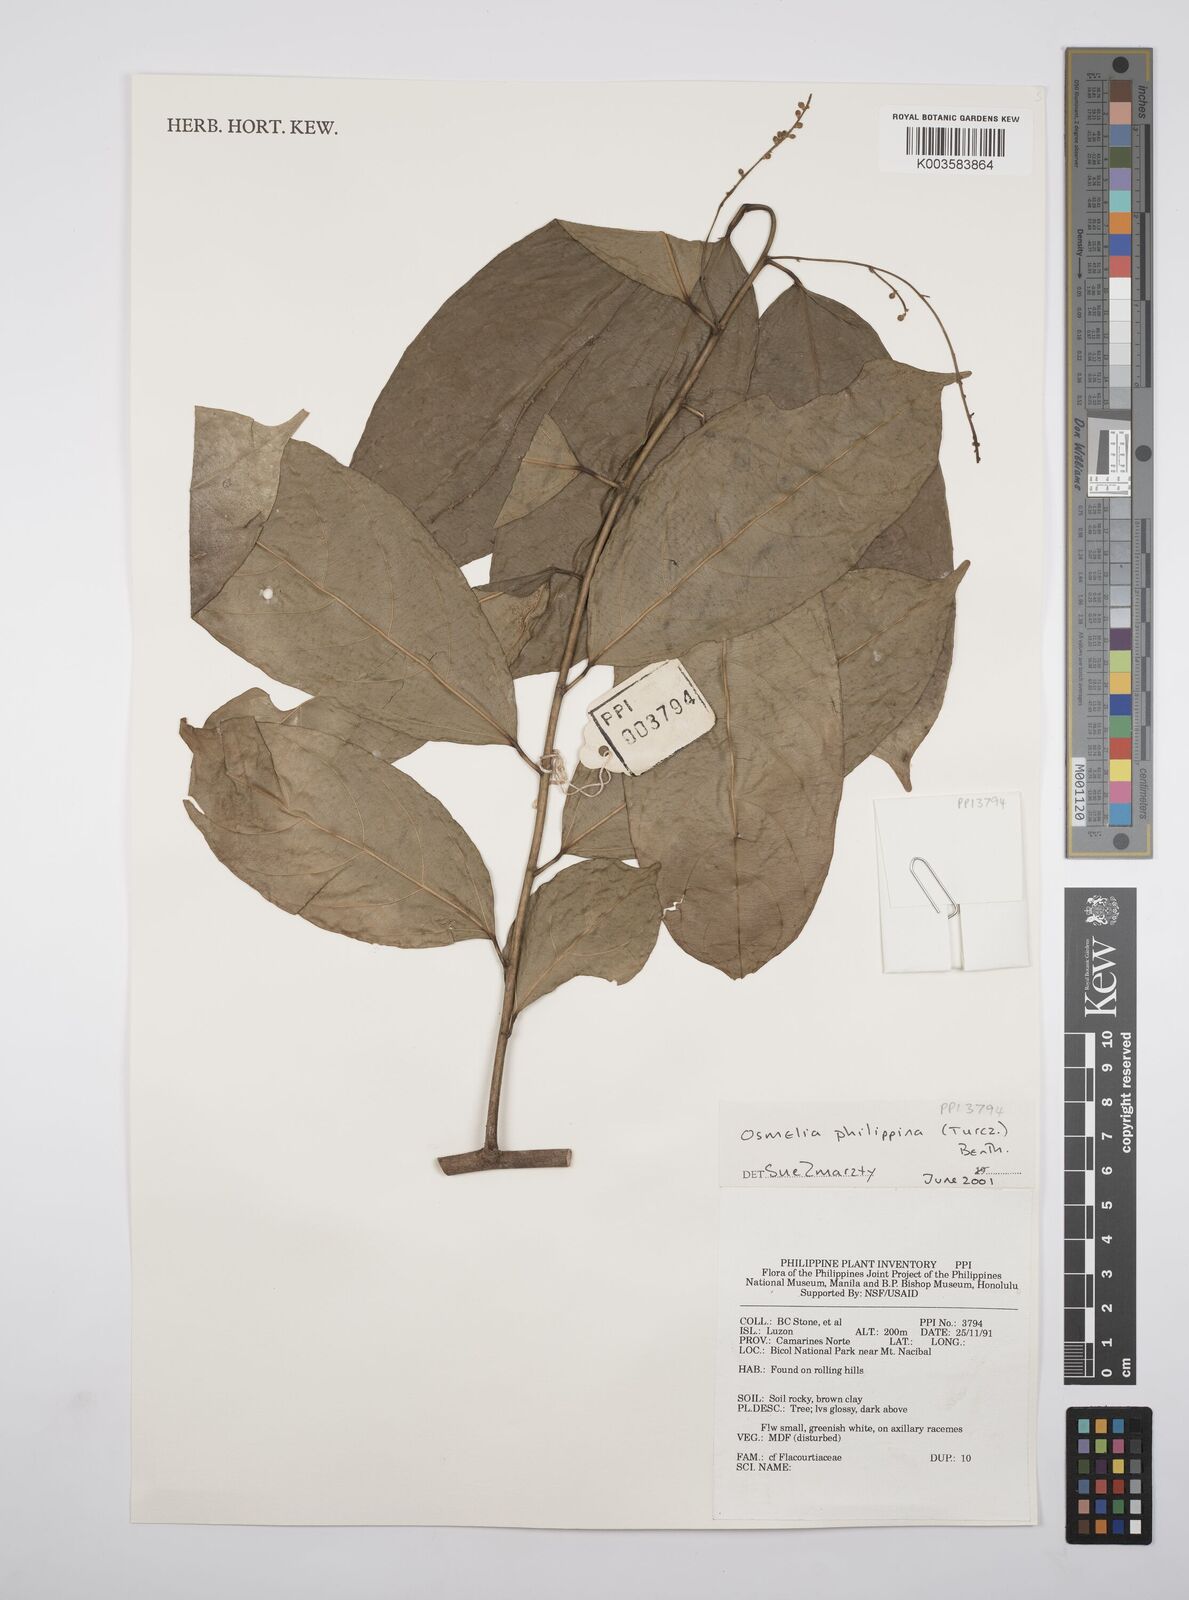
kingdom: Plantae
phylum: Tracheophyta
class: Magnoliopsida
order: Malpighiales
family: Salicaceae
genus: Osmelia
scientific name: Osmelia philippina
